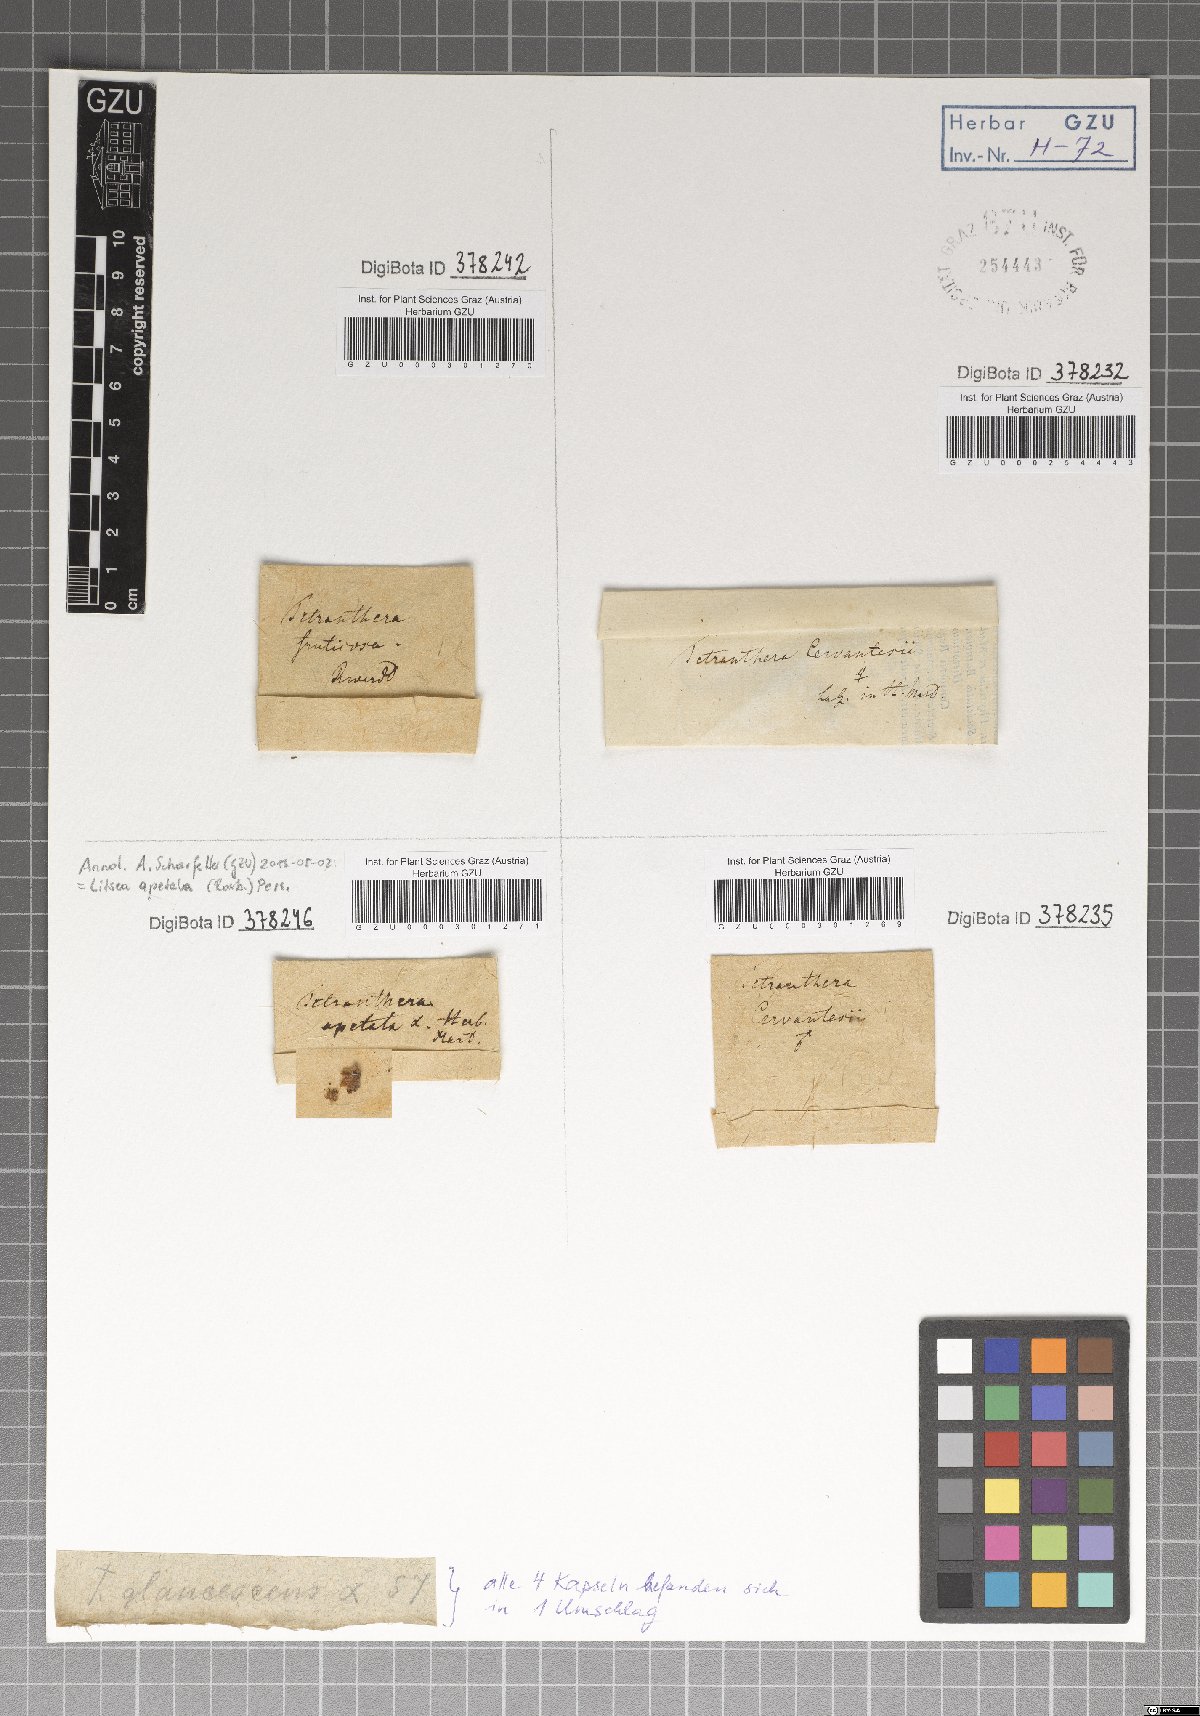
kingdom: Plantae
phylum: Tracheophyta
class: Magnoliopsida
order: Laurales
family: Lauraceae
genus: Litsea
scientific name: Litsea glutinosa
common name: Indian-laurel
